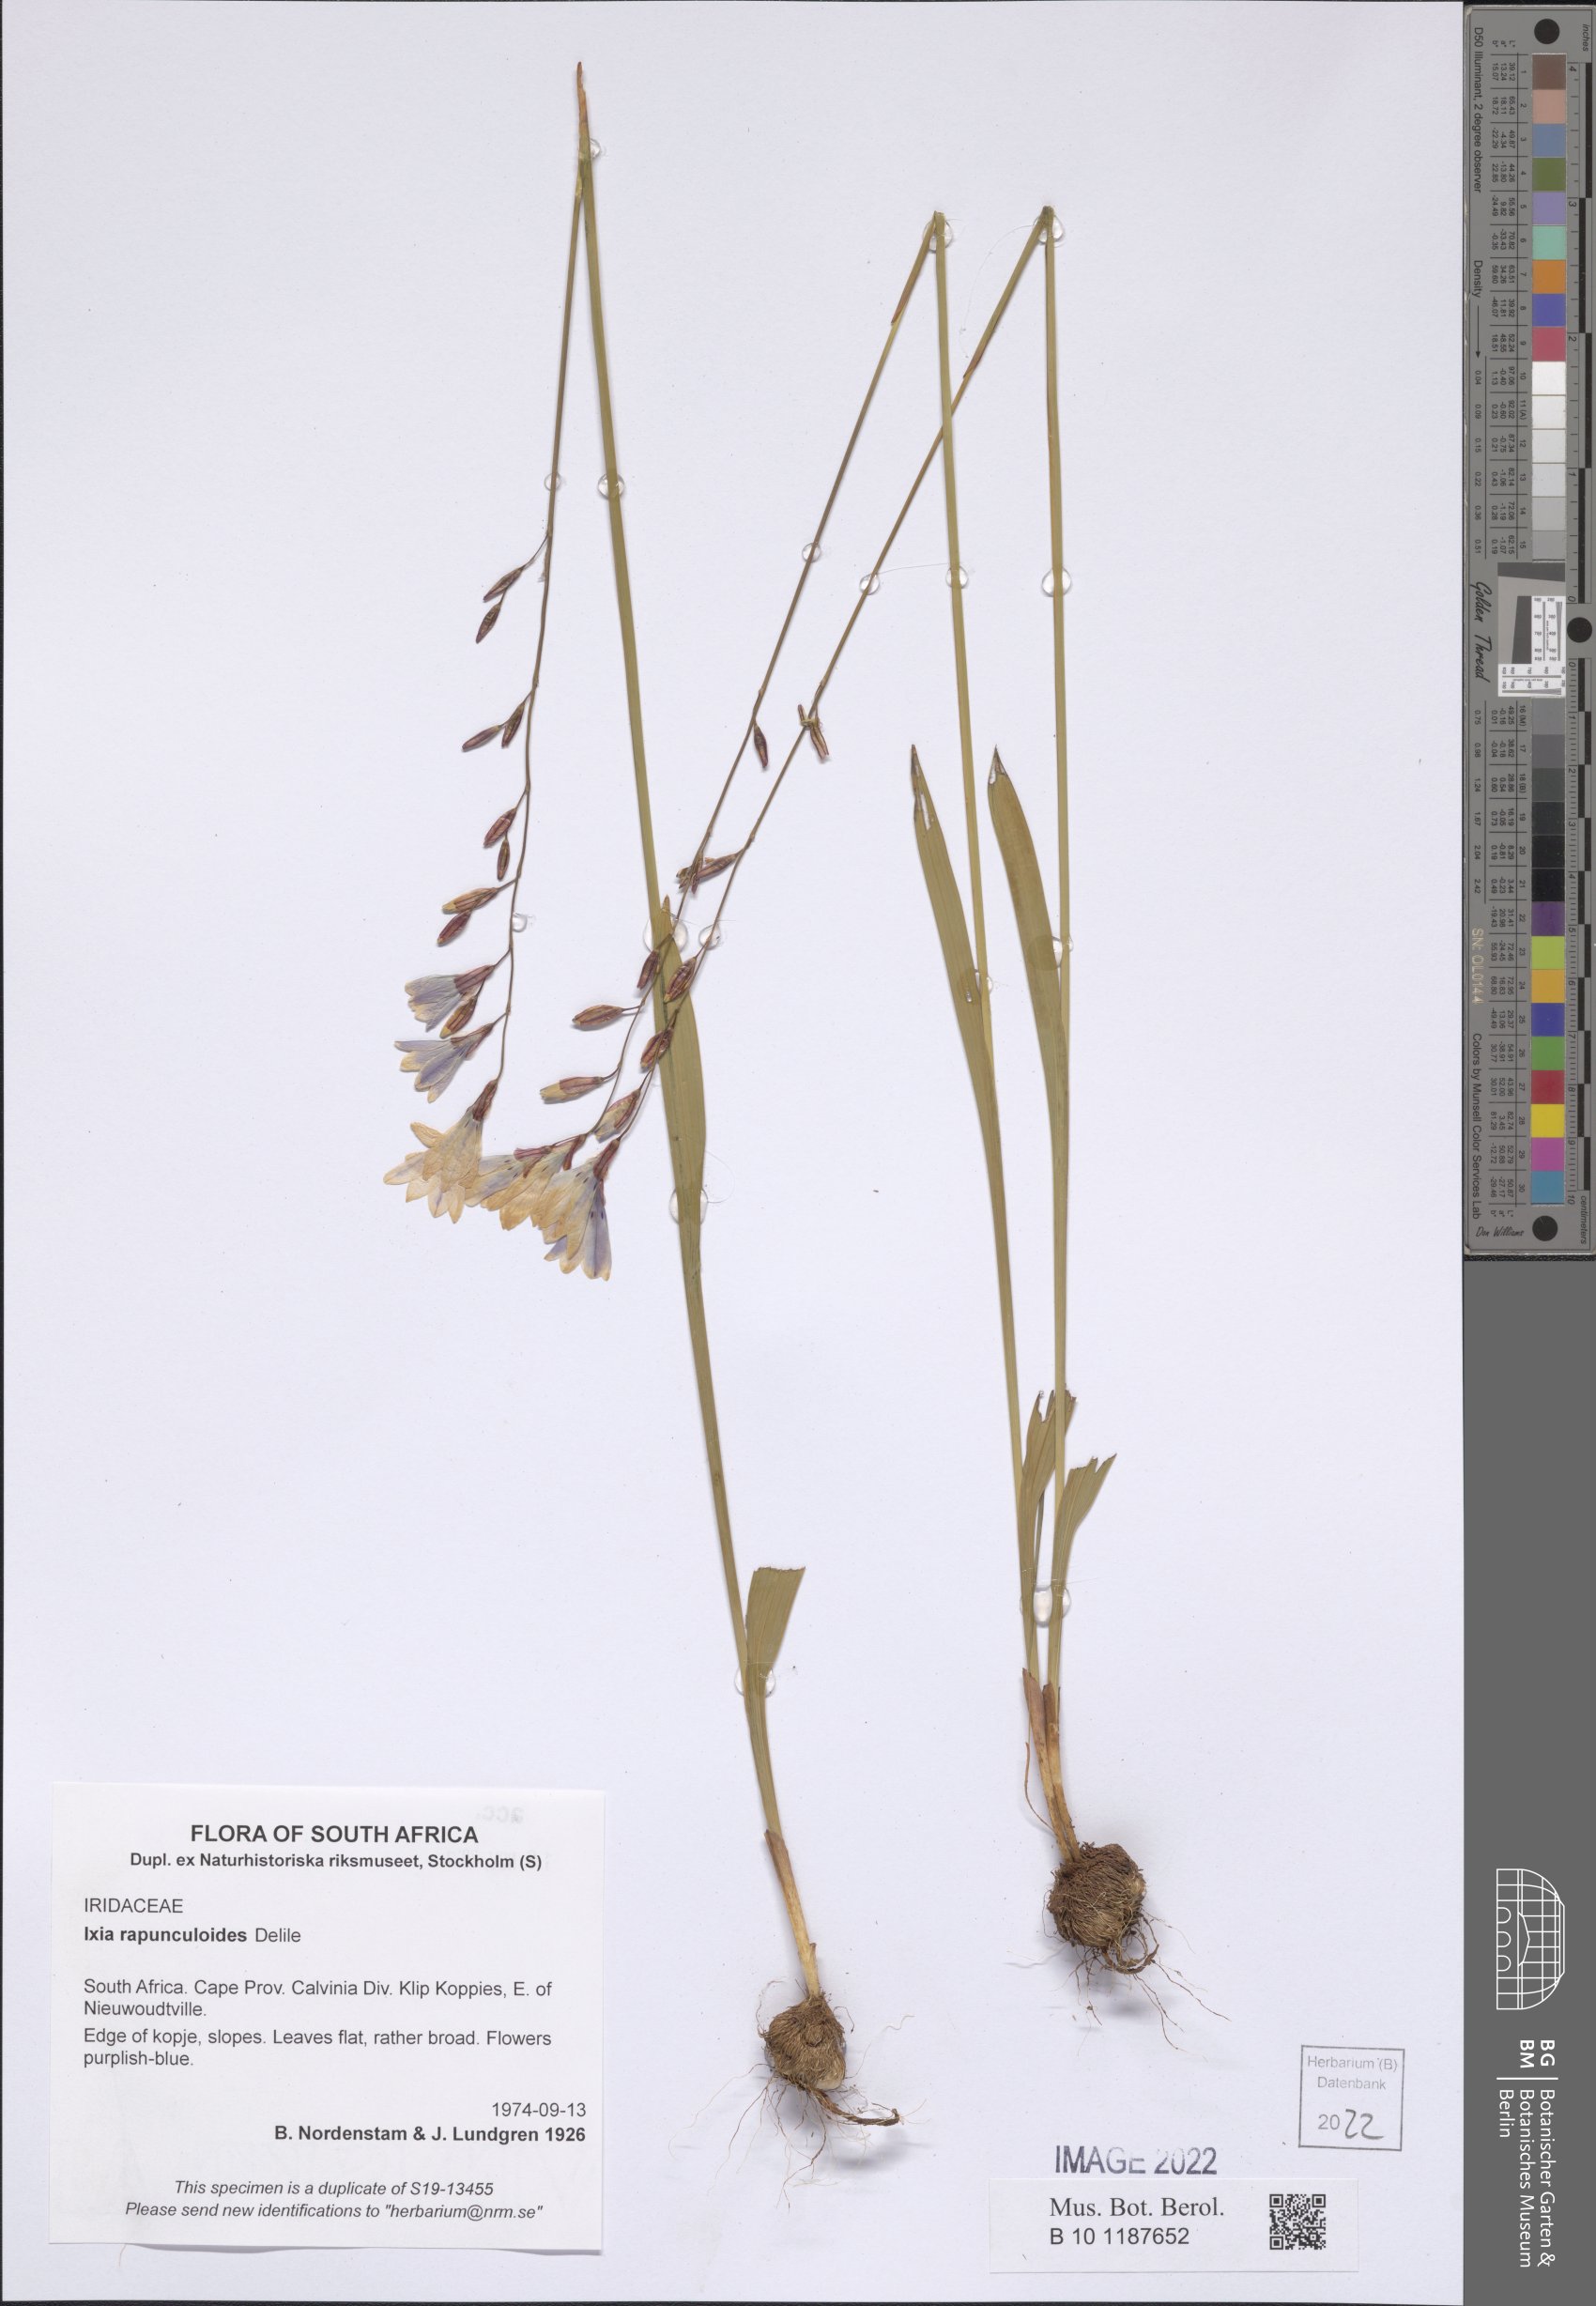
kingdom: Plantae
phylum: Tracheophyta
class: Liliopsida
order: Asparagales
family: Iridaceae
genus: Ixia
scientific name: Ixia rapunculoides
